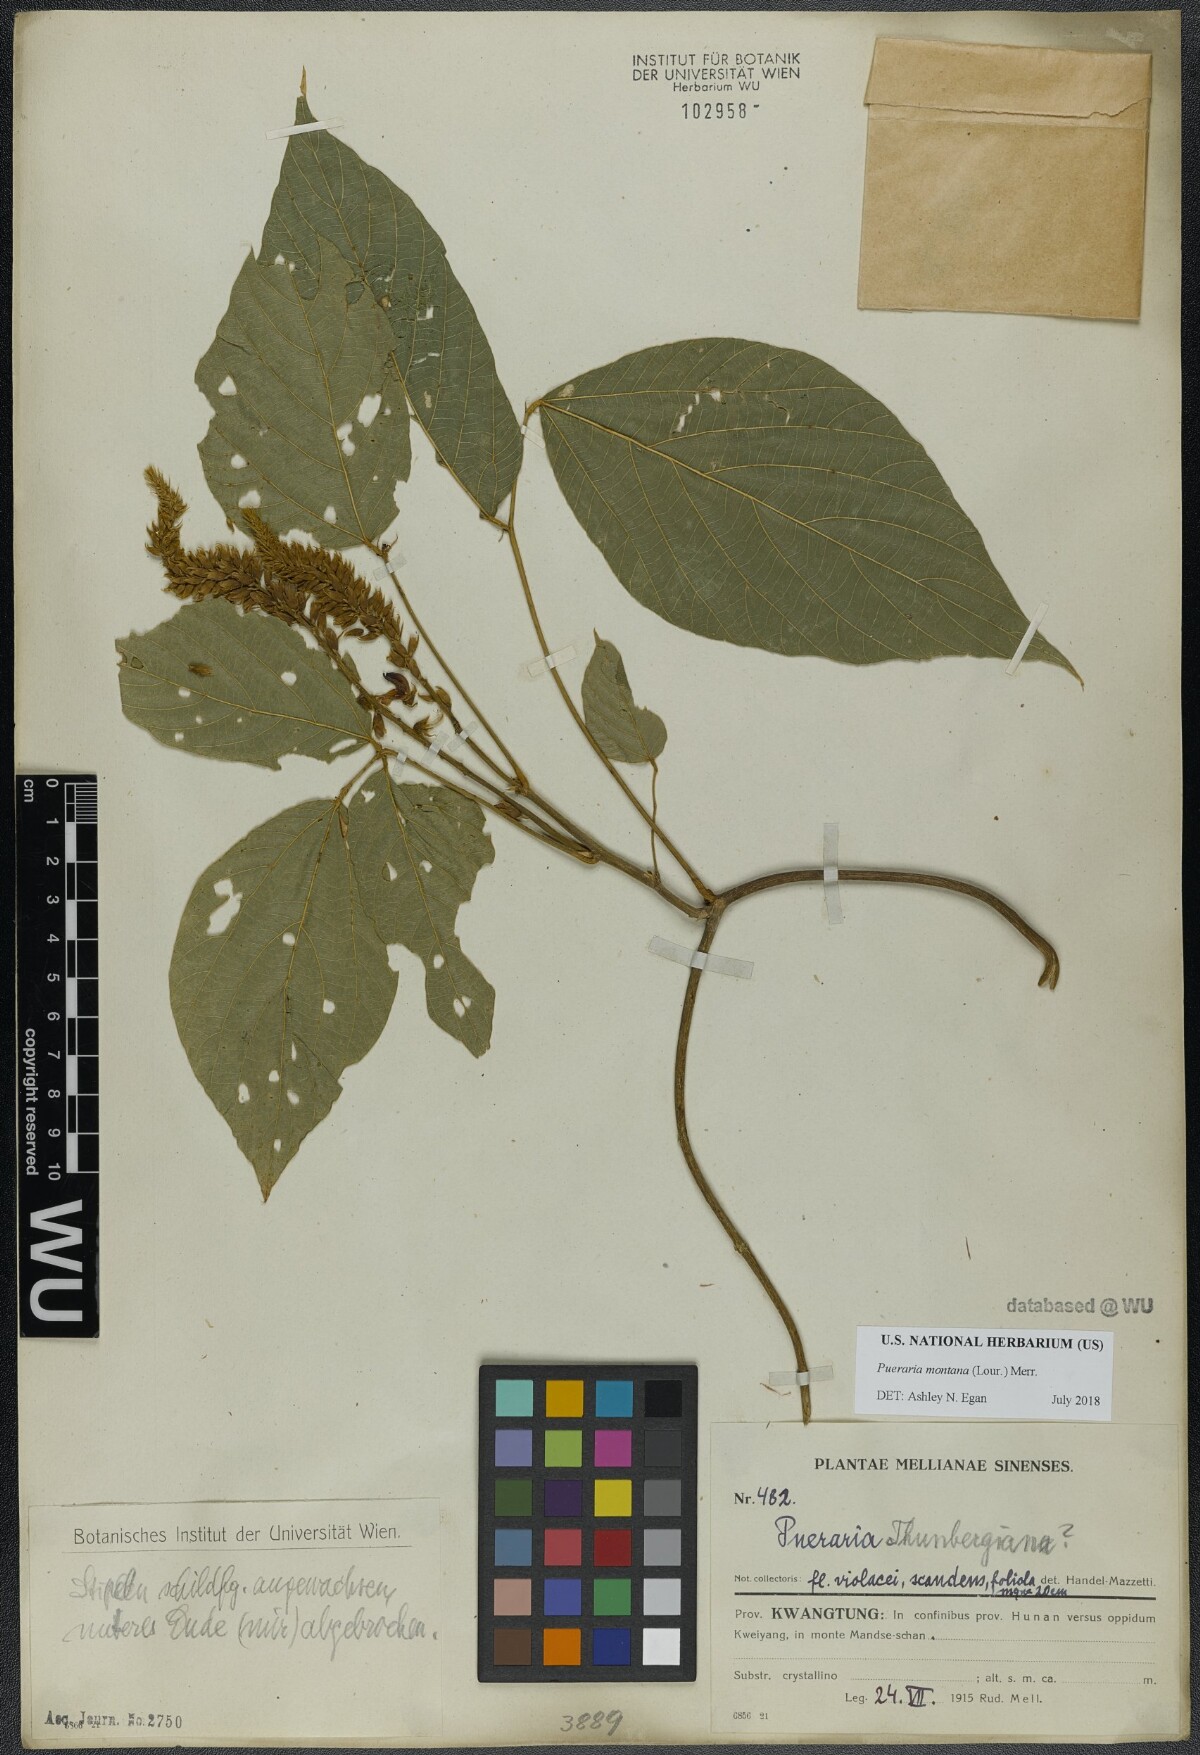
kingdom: Plantae
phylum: Tracheophyta
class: Magnoliopsida
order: Fabales
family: Fabaceae
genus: Pueraria
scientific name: Pueraria montana
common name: Kudzu
